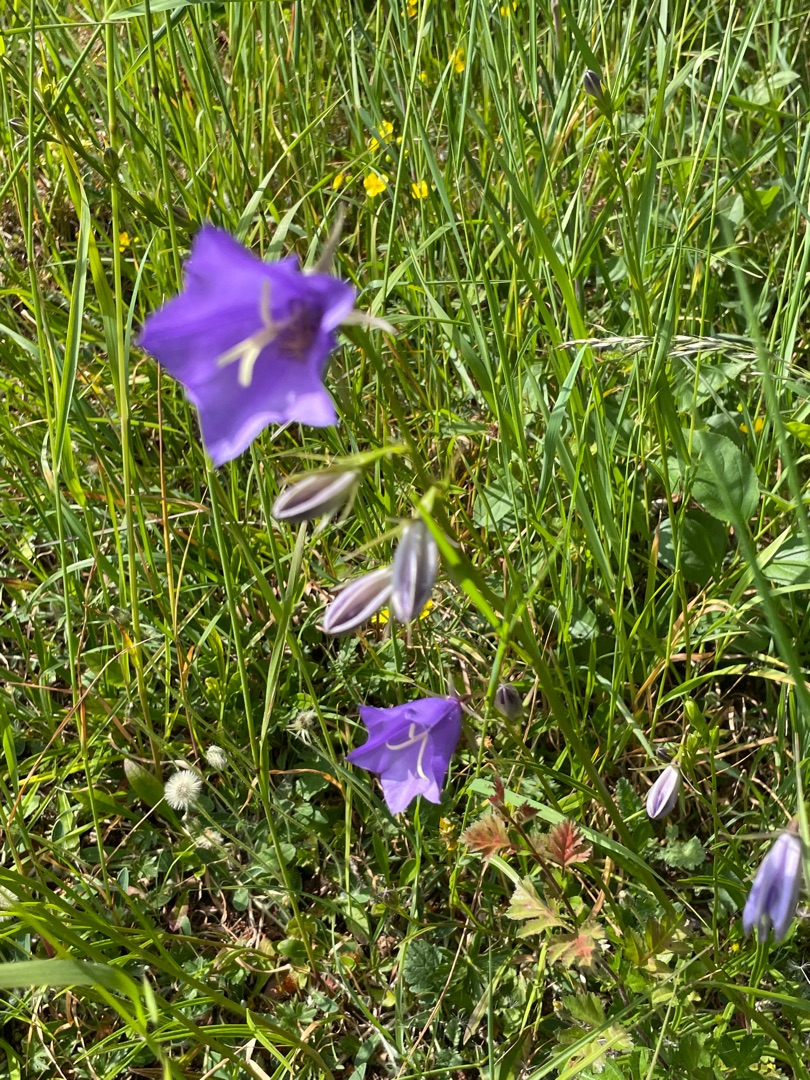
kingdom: Plantae
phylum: Tracheophyta
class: Magnoliopsida
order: Asterales
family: Campanulaceae
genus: Campanula
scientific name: Campanula persicifolia
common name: Smalbladet klokke
